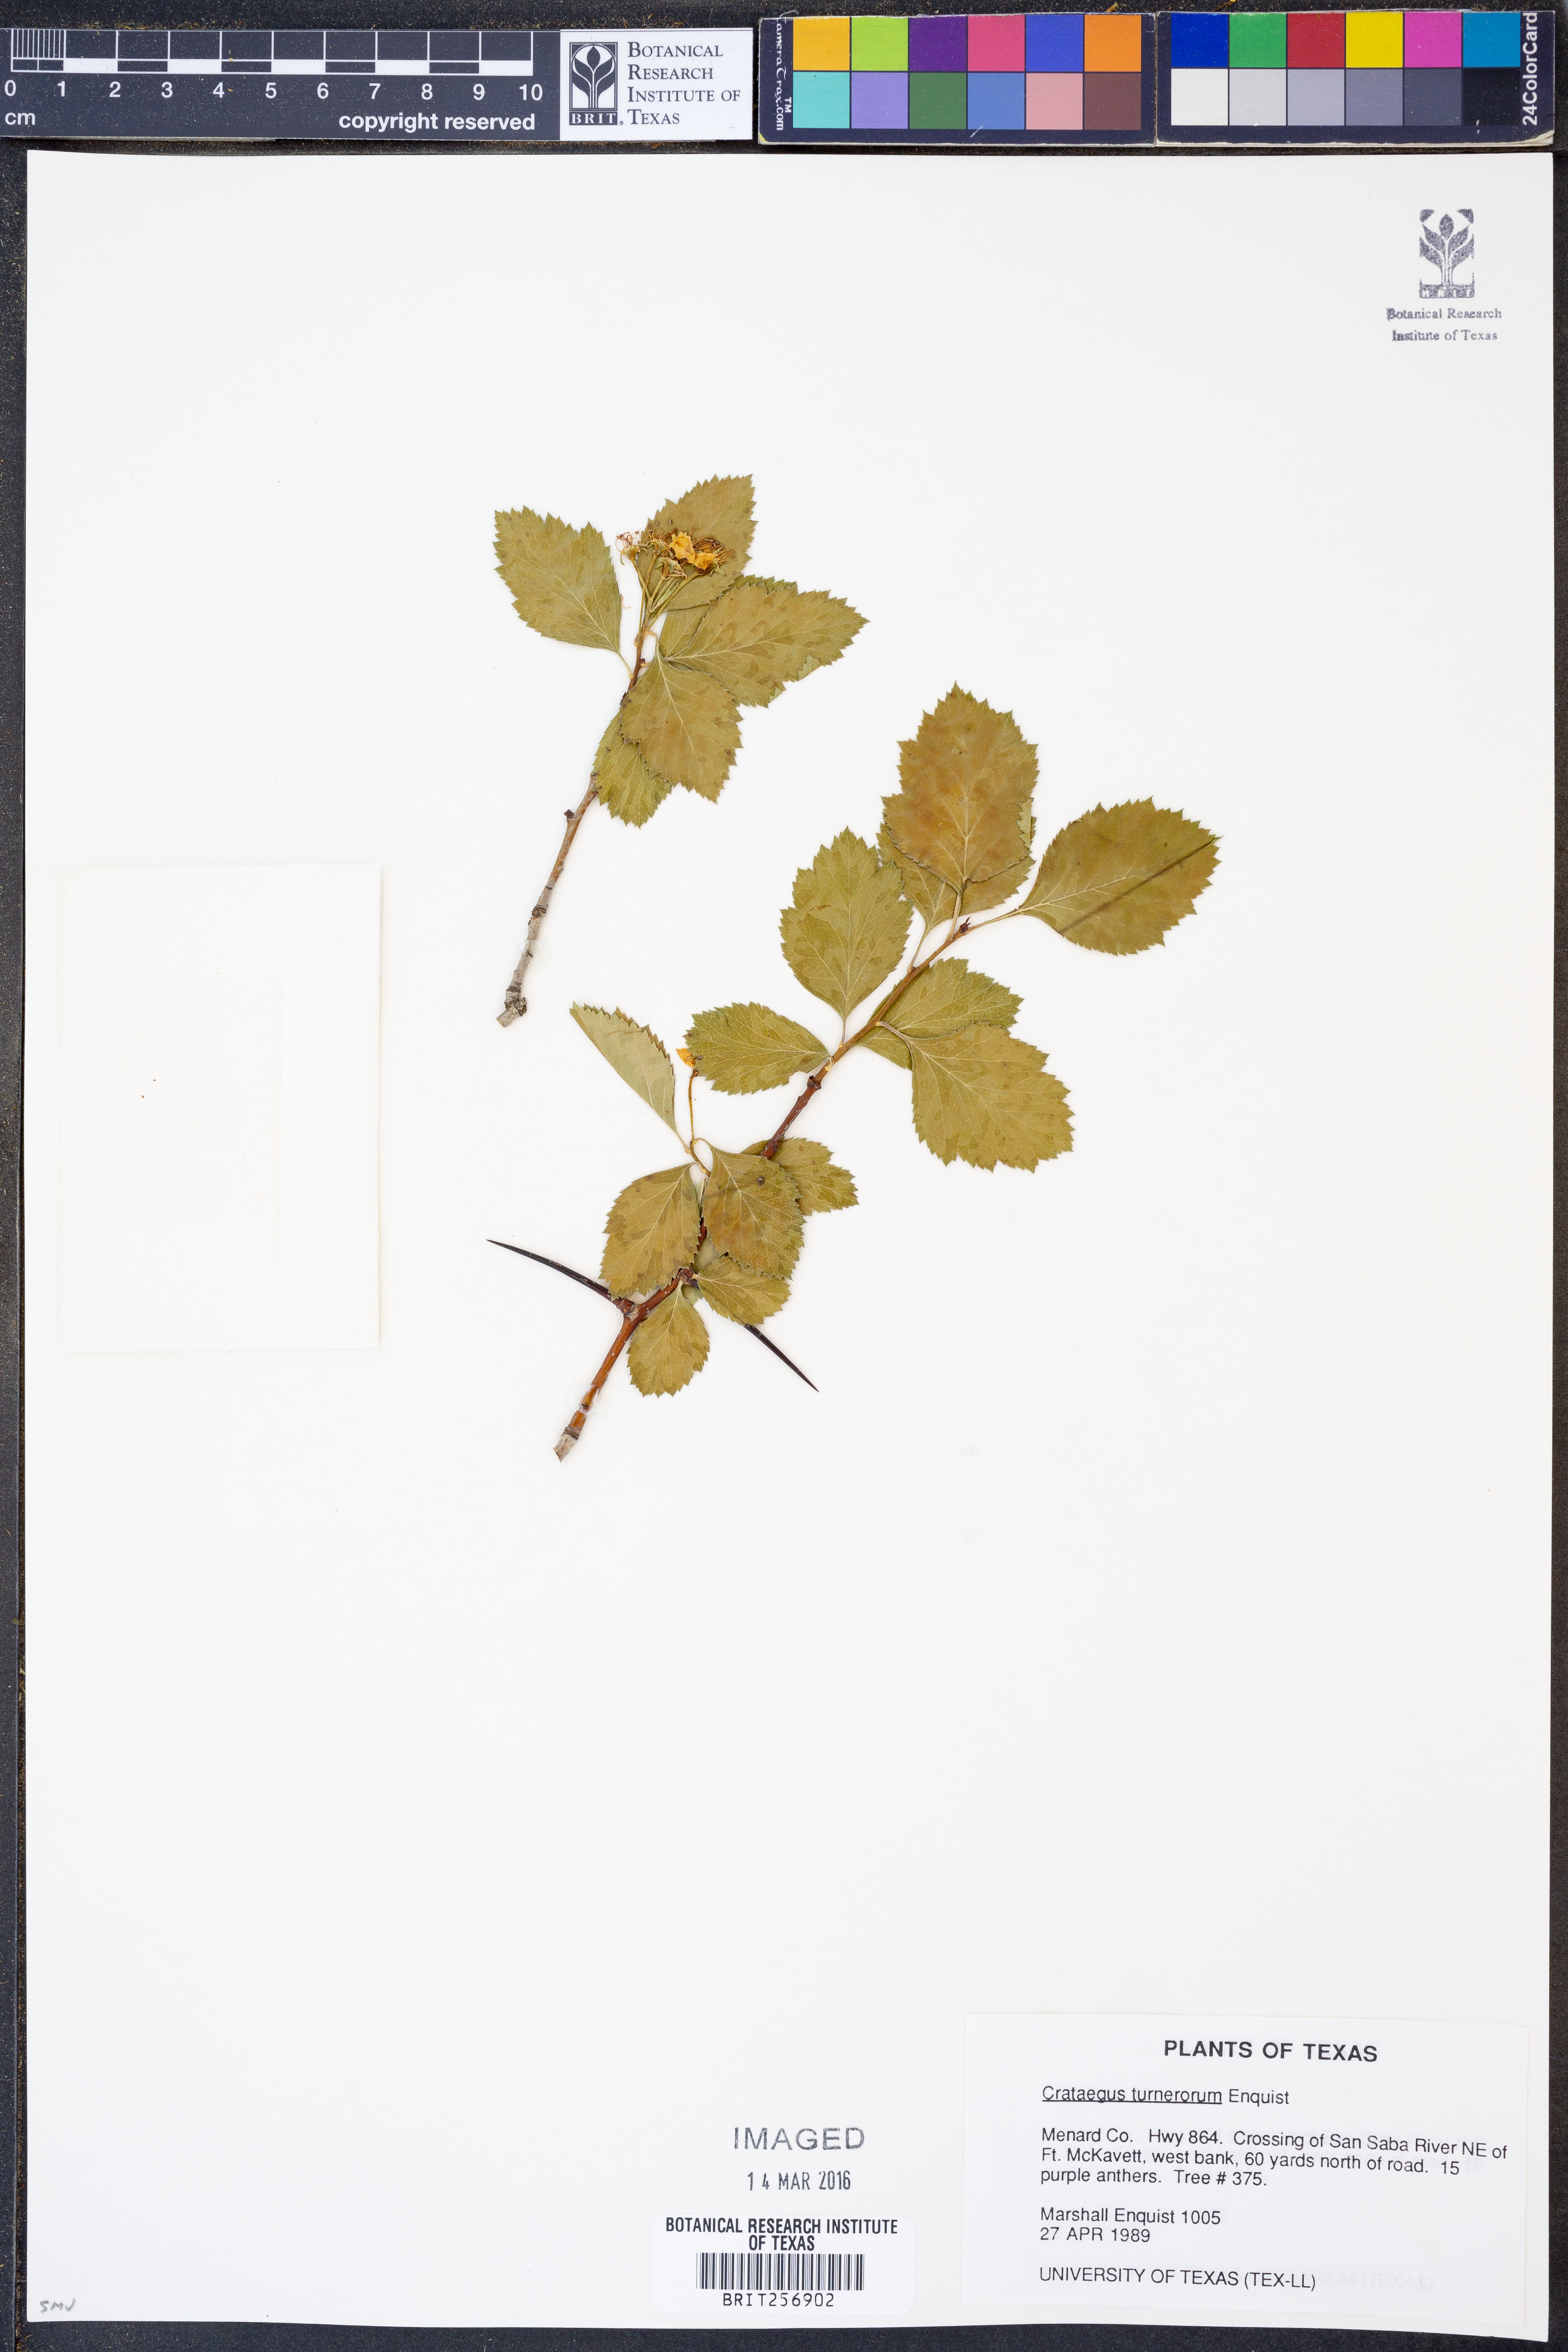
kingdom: Plantae
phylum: Tracheophyta
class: Magnoliopsida
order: Rosales
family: Rosaceae
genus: Crataegus
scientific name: Crataegus turnerorum
